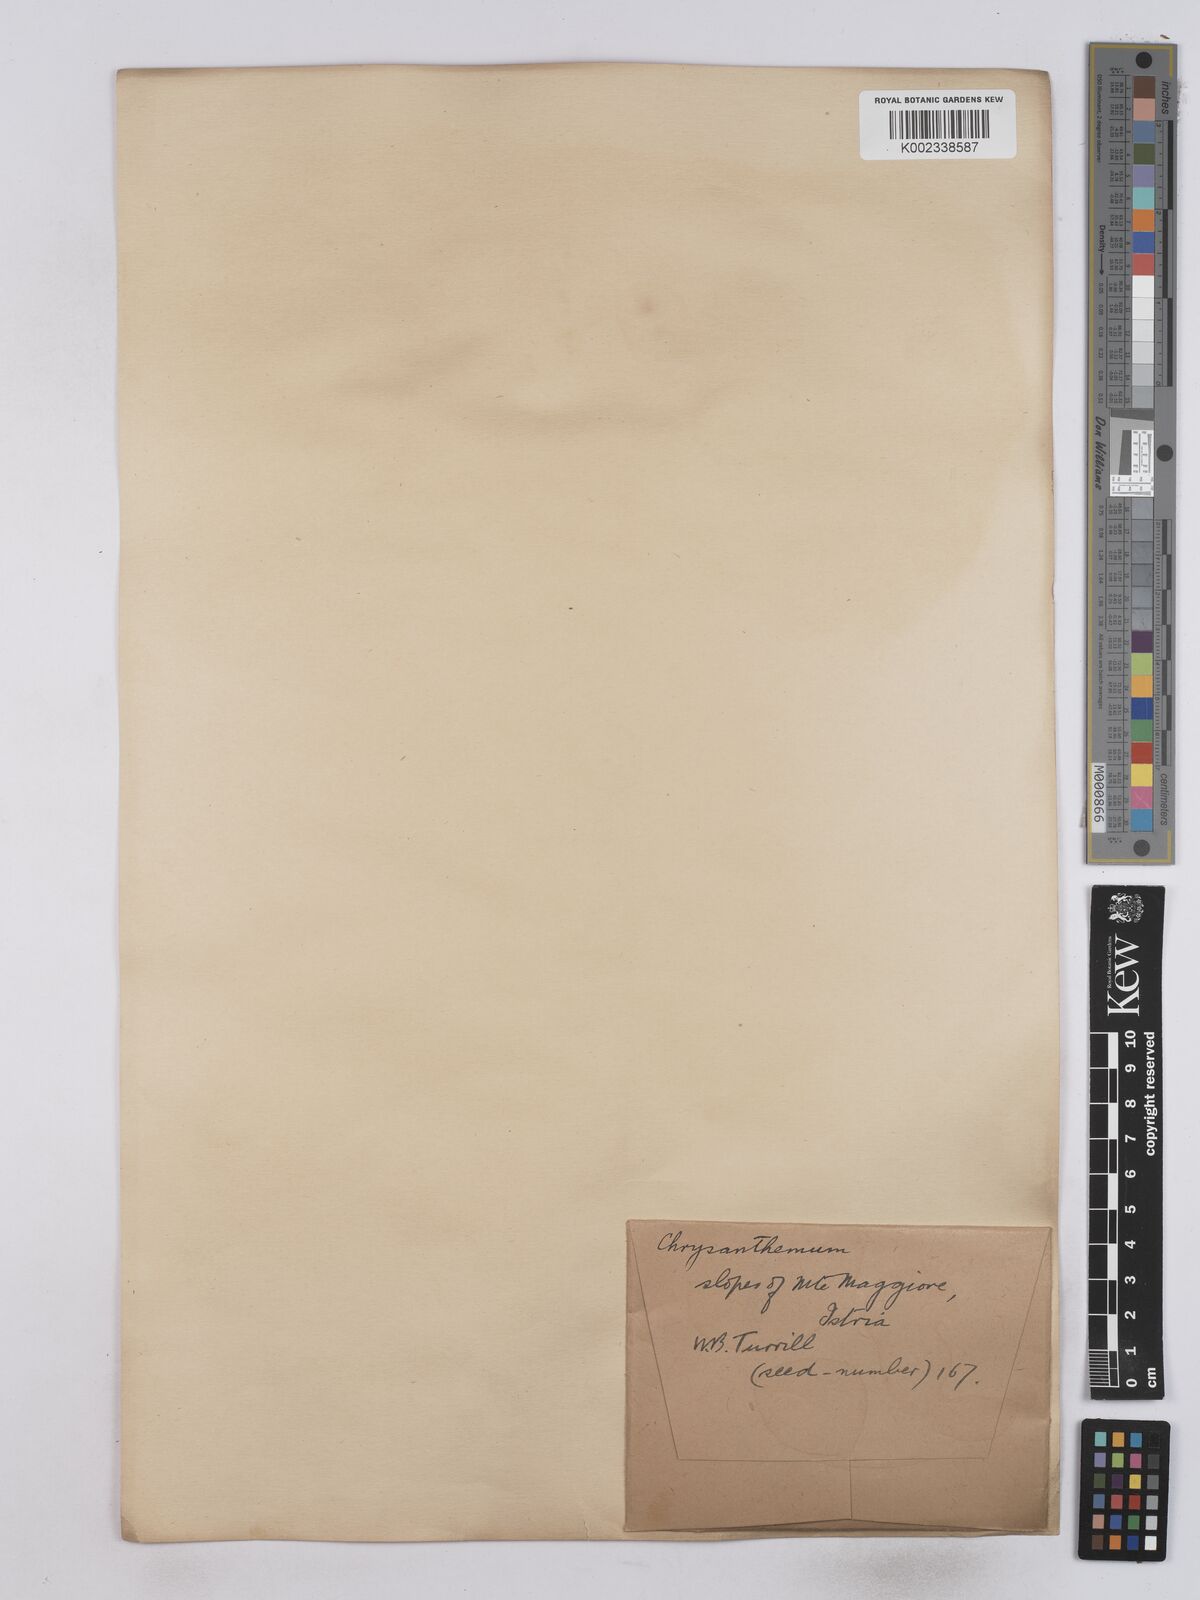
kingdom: Plantae
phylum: Tracheophyta
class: Magnoliopsida
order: Asterales
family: Asteraceae
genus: Tanacetum
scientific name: Tanacetum corymbosum
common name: Scentless feverfew
